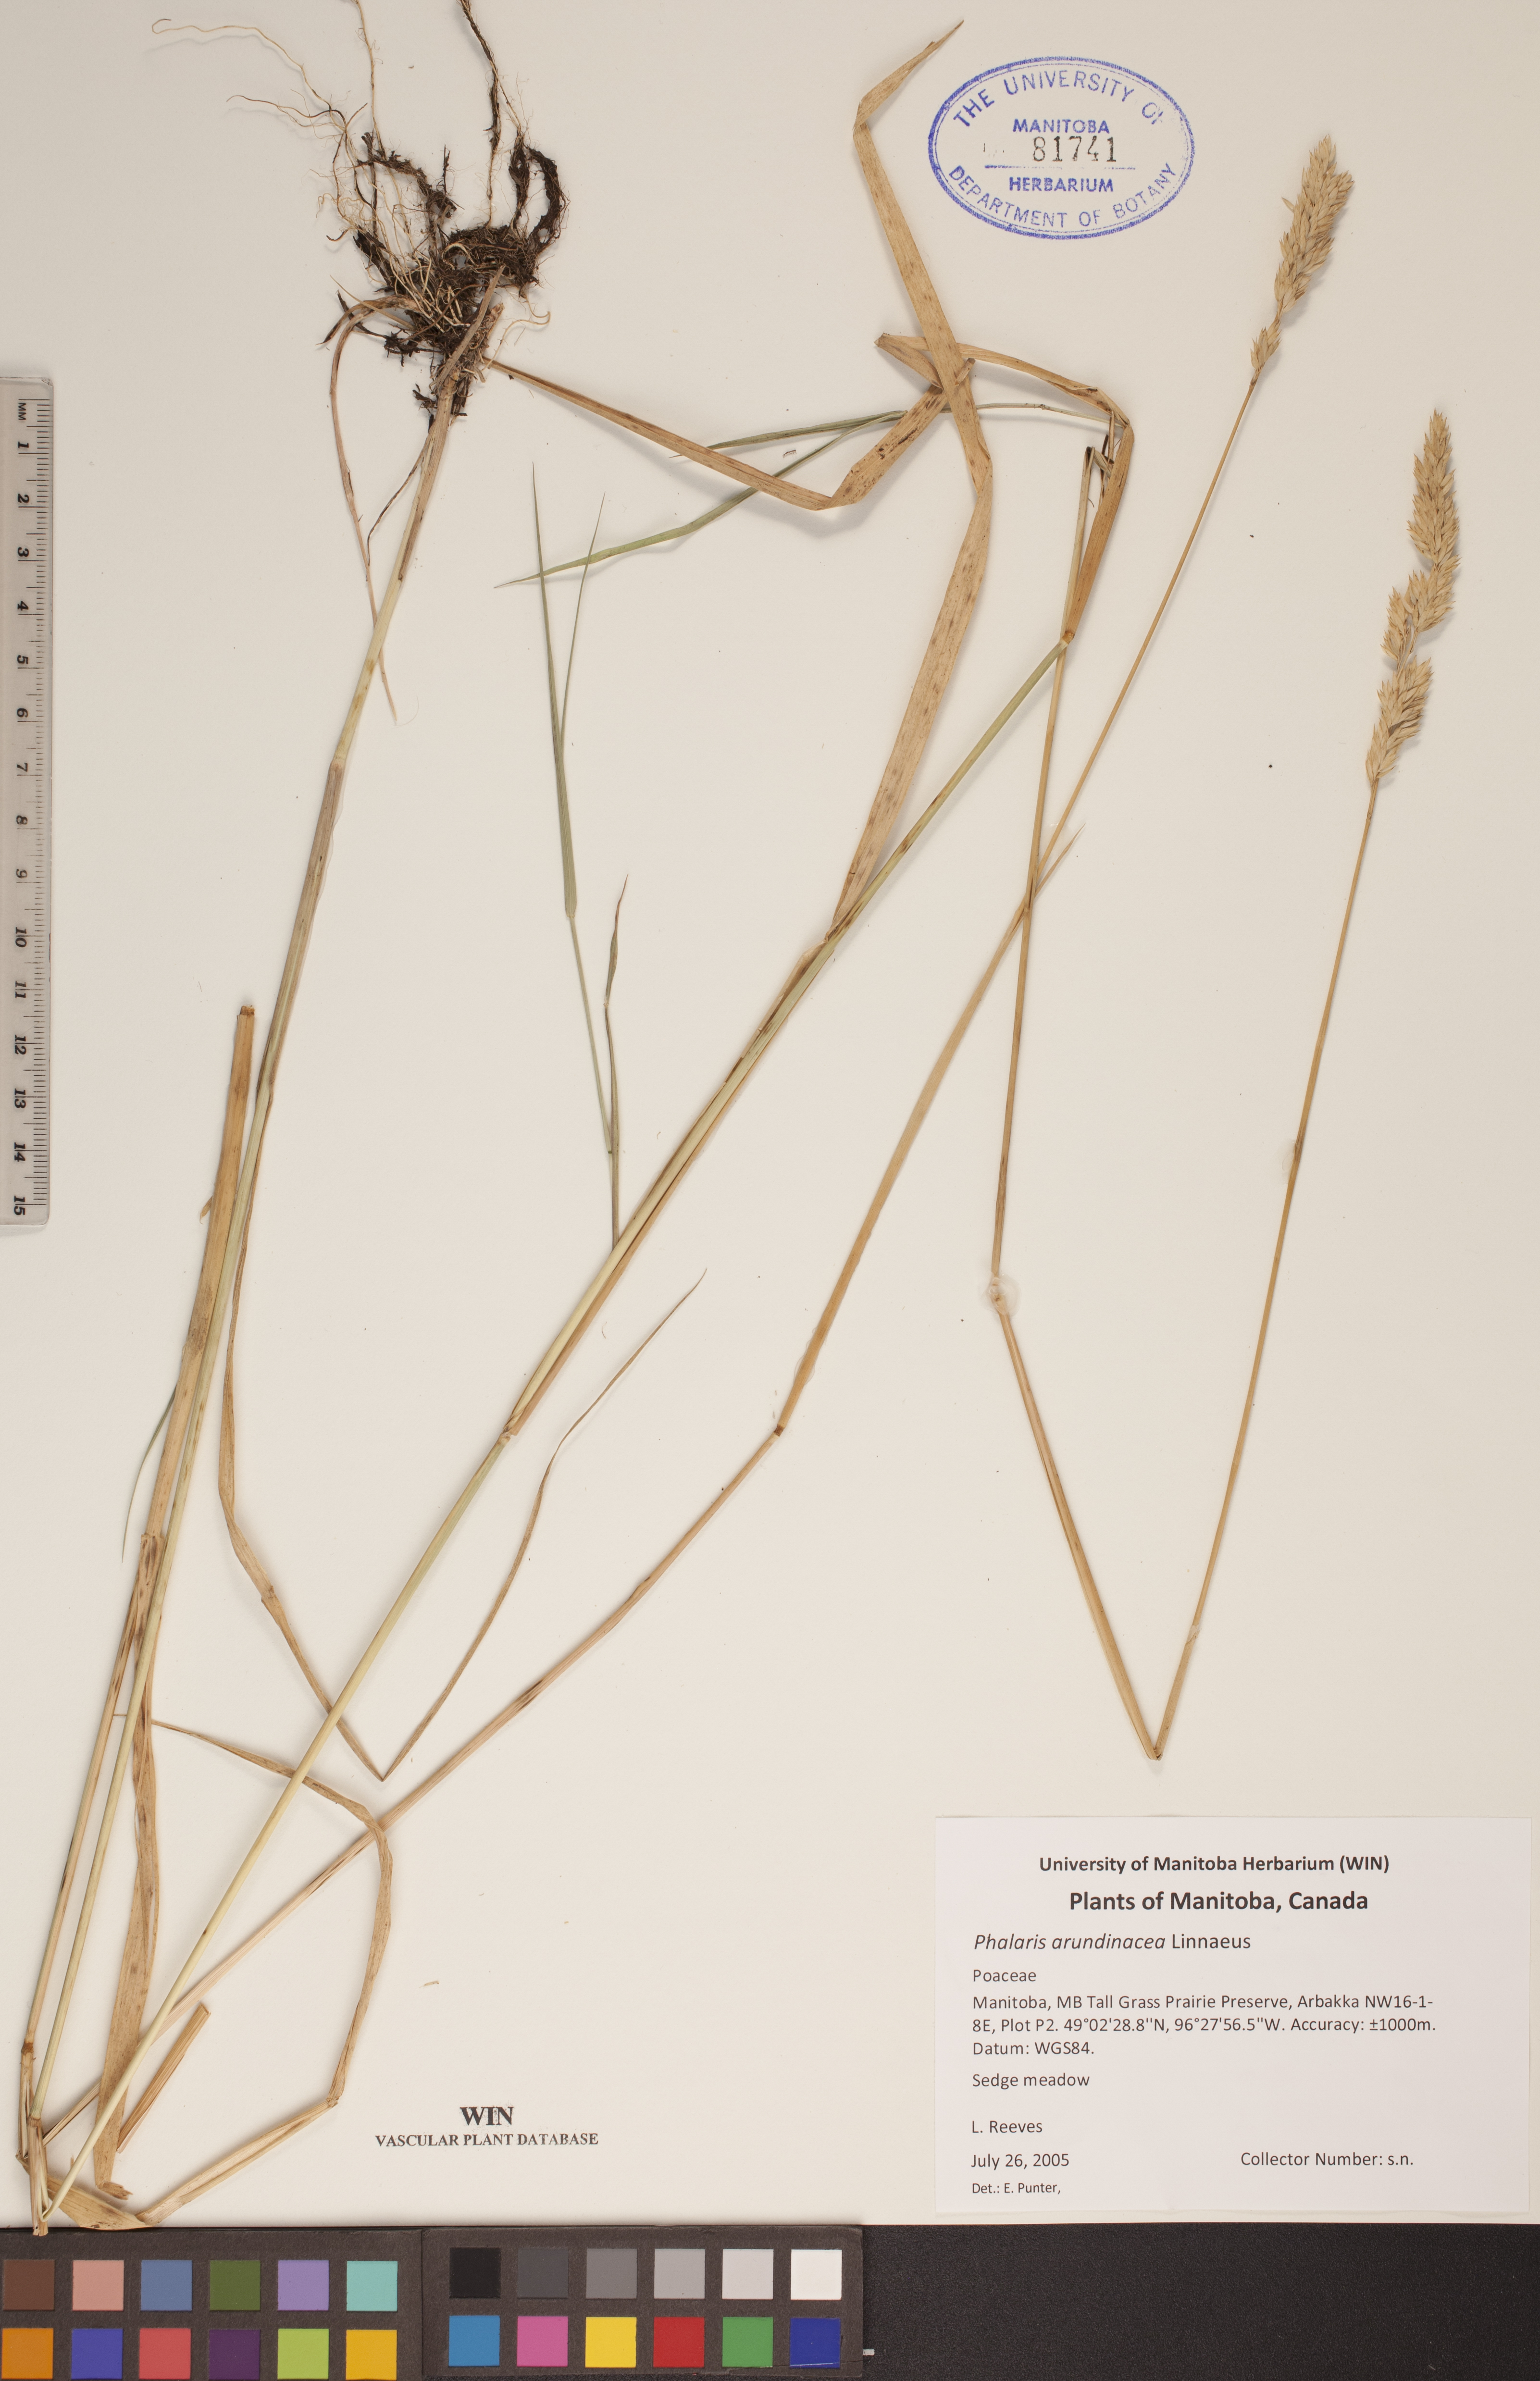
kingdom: Plantae
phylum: Tracheophyta
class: Liliopsida
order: Poales
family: Poaceae
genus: Phalaris
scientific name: Phalaris arundinacea
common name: Reed canary-grass
